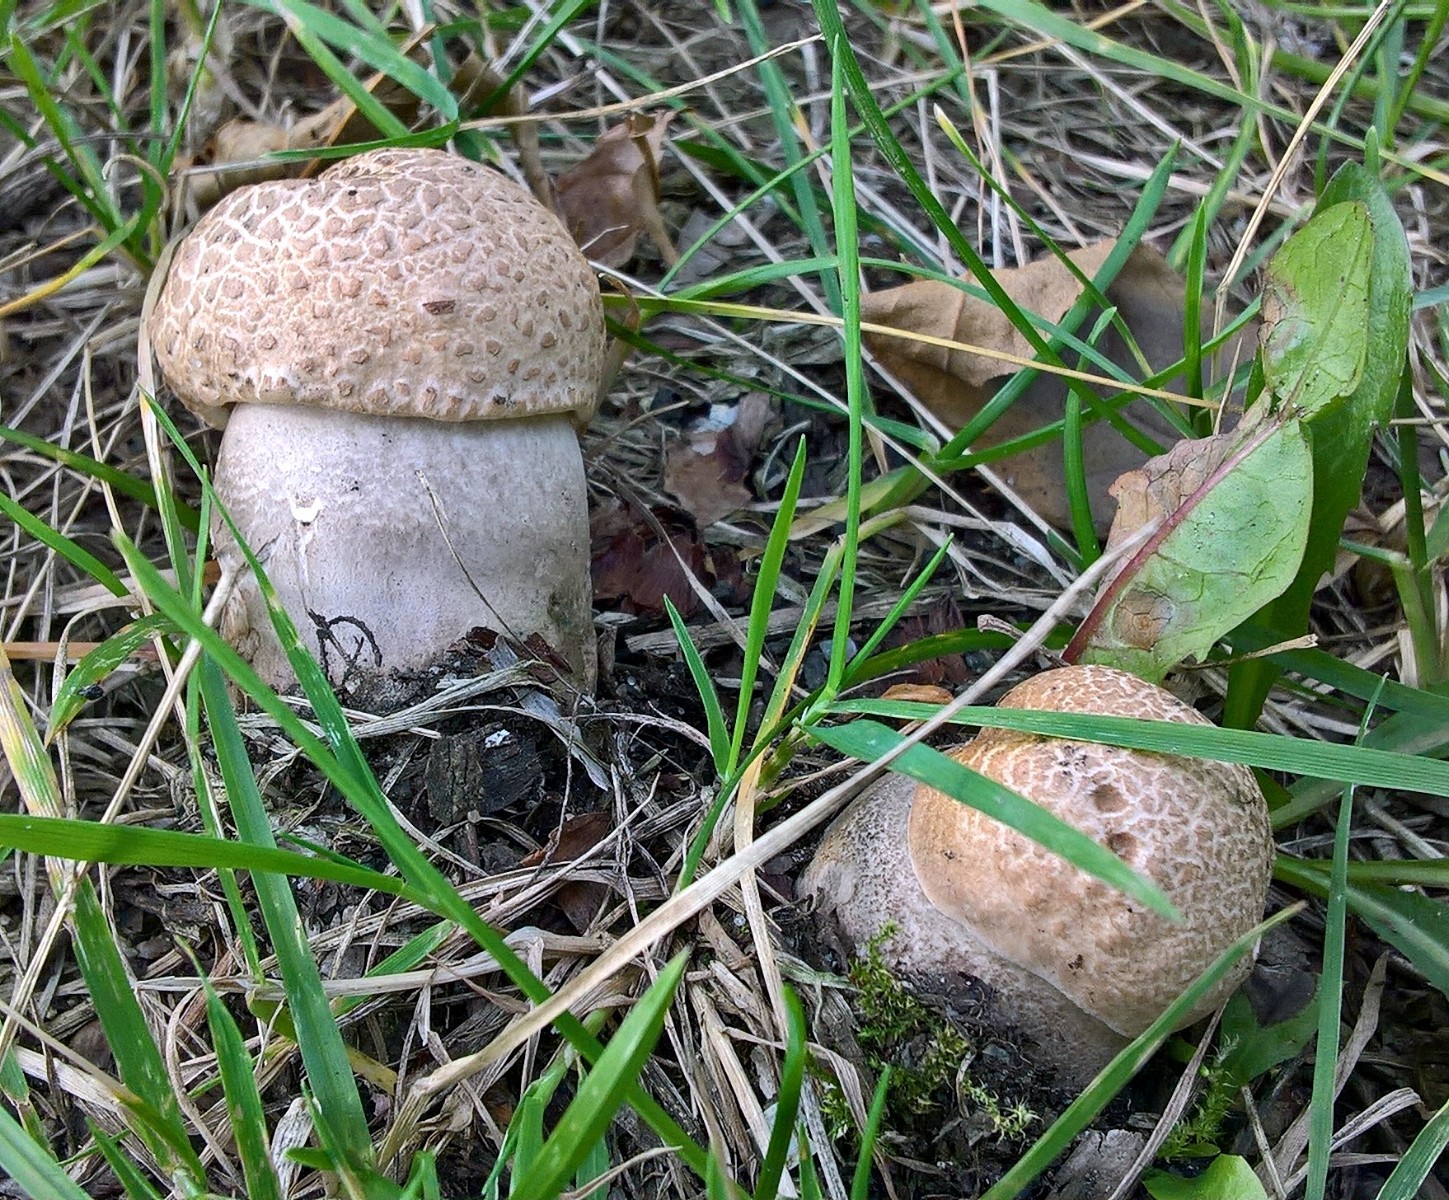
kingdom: Fungi
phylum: Basidiomycota
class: Agaricomycetes
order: Boletales
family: Boletaceae
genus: Leccinum
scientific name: Leccinum duriusculum
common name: poppel-skælrørhat
